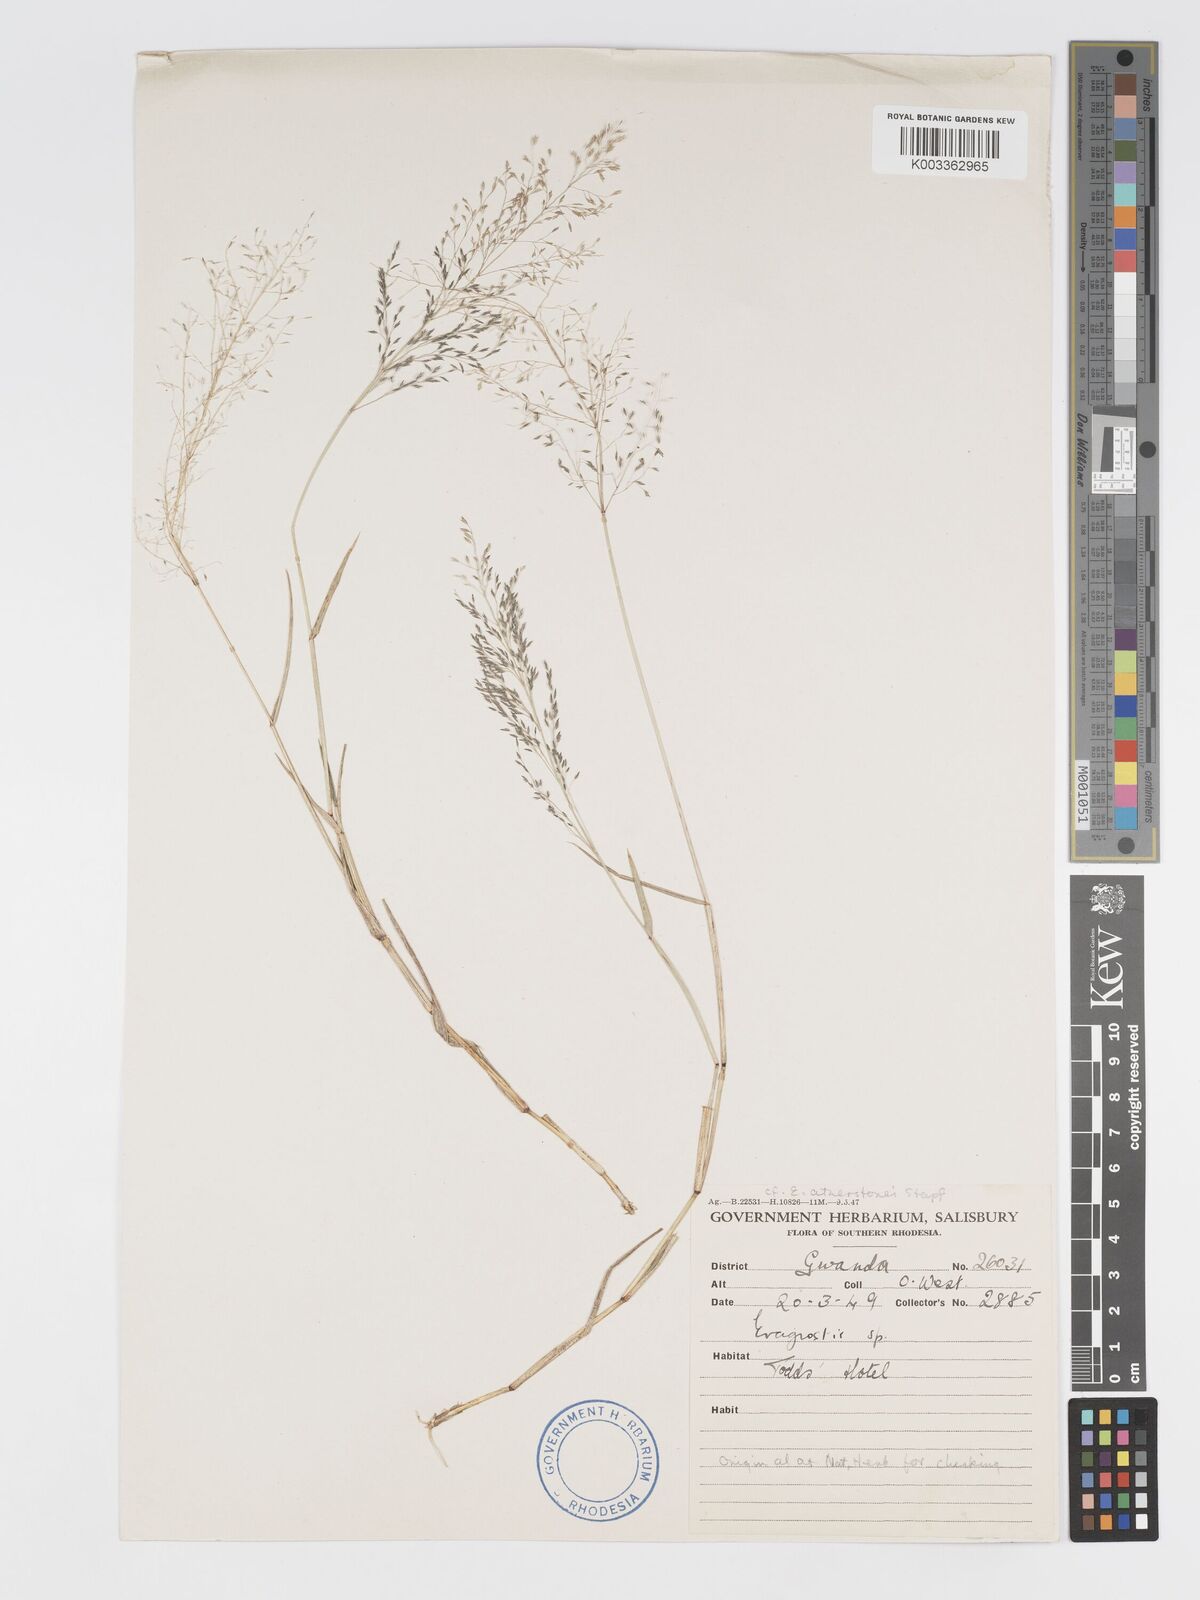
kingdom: Plantae
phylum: Tracheophyta
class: Liliopsida
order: Poales
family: Poaceae
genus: Eragrostis
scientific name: Eragrostis cylindriflora
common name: Cylinderflower lovegrass
